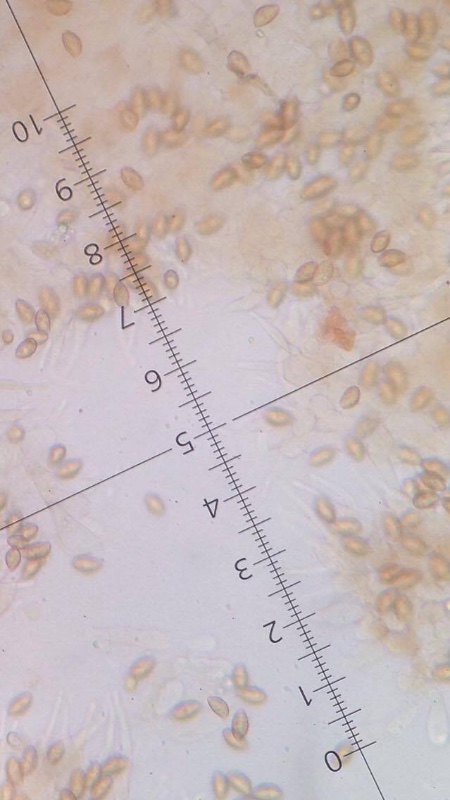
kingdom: Fungi
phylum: Basidiomycota
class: Agaricomycetes
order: Agaricales
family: Hymenogastraceae
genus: Naucoria
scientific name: Naucoria scolecina
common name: mørk elle-knaphat
